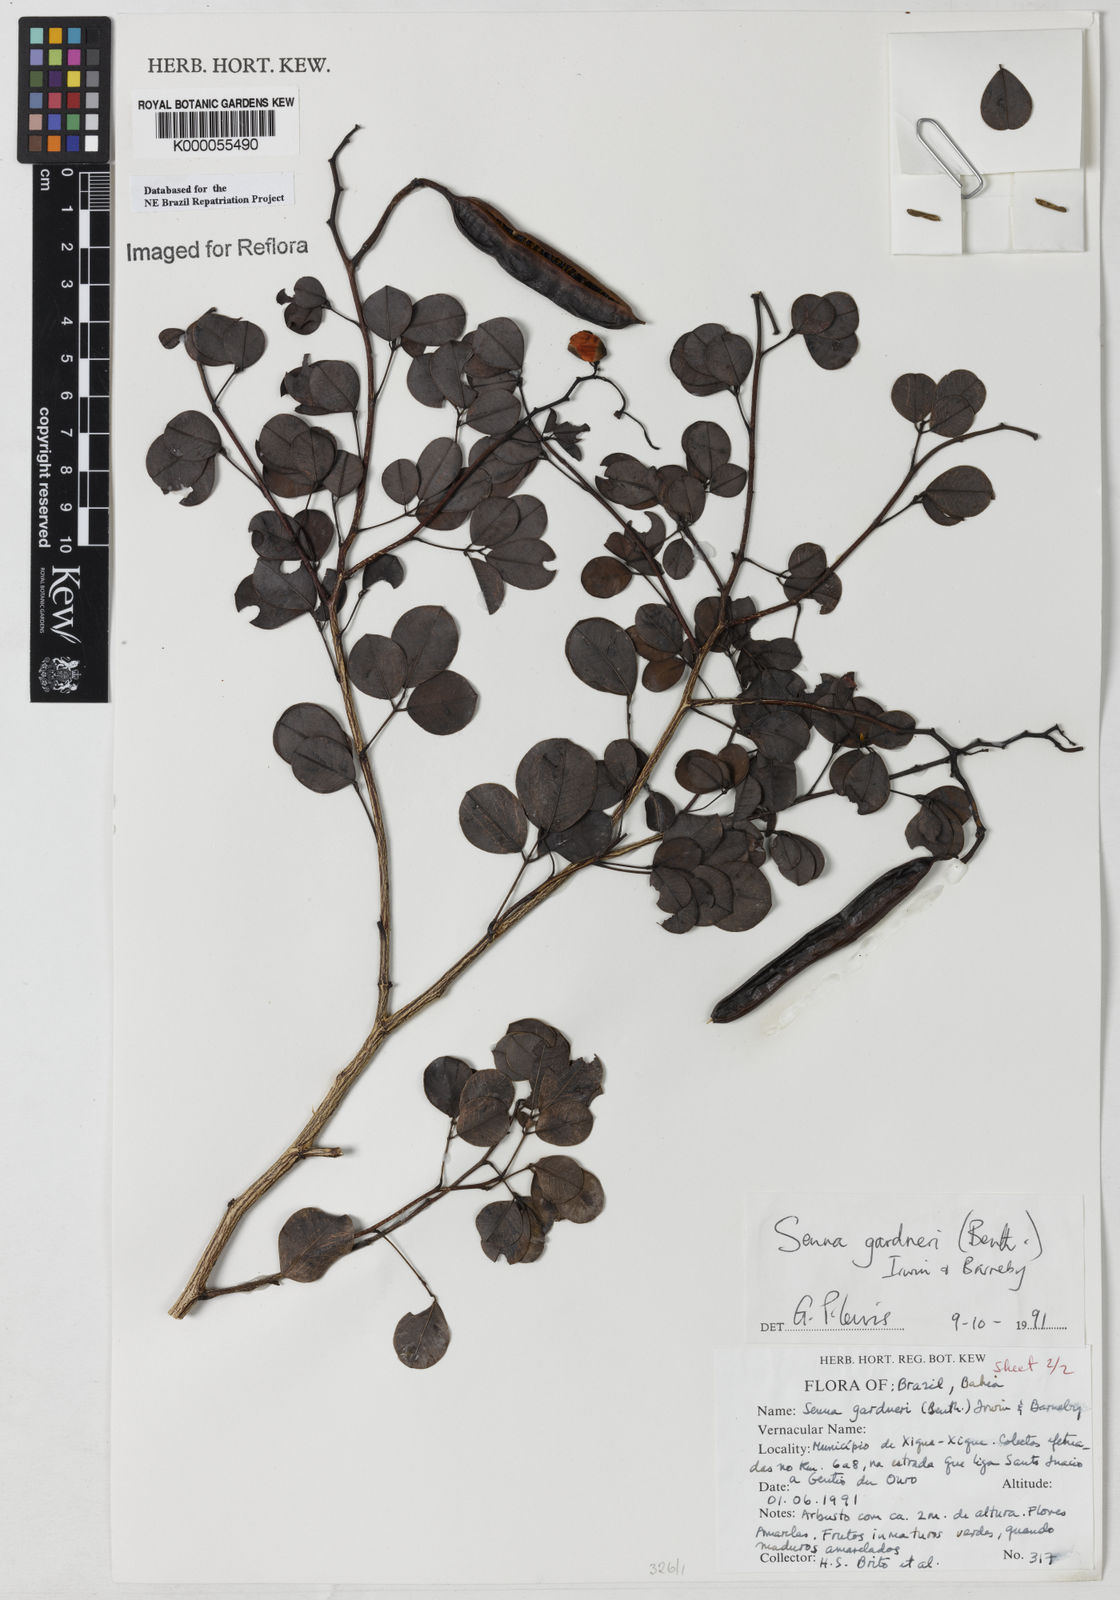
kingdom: Plantae
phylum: Tracheophyta
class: Magnoliopsida
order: Fabales
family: Fabaceae
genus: Senna
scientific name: Senna gardneri
